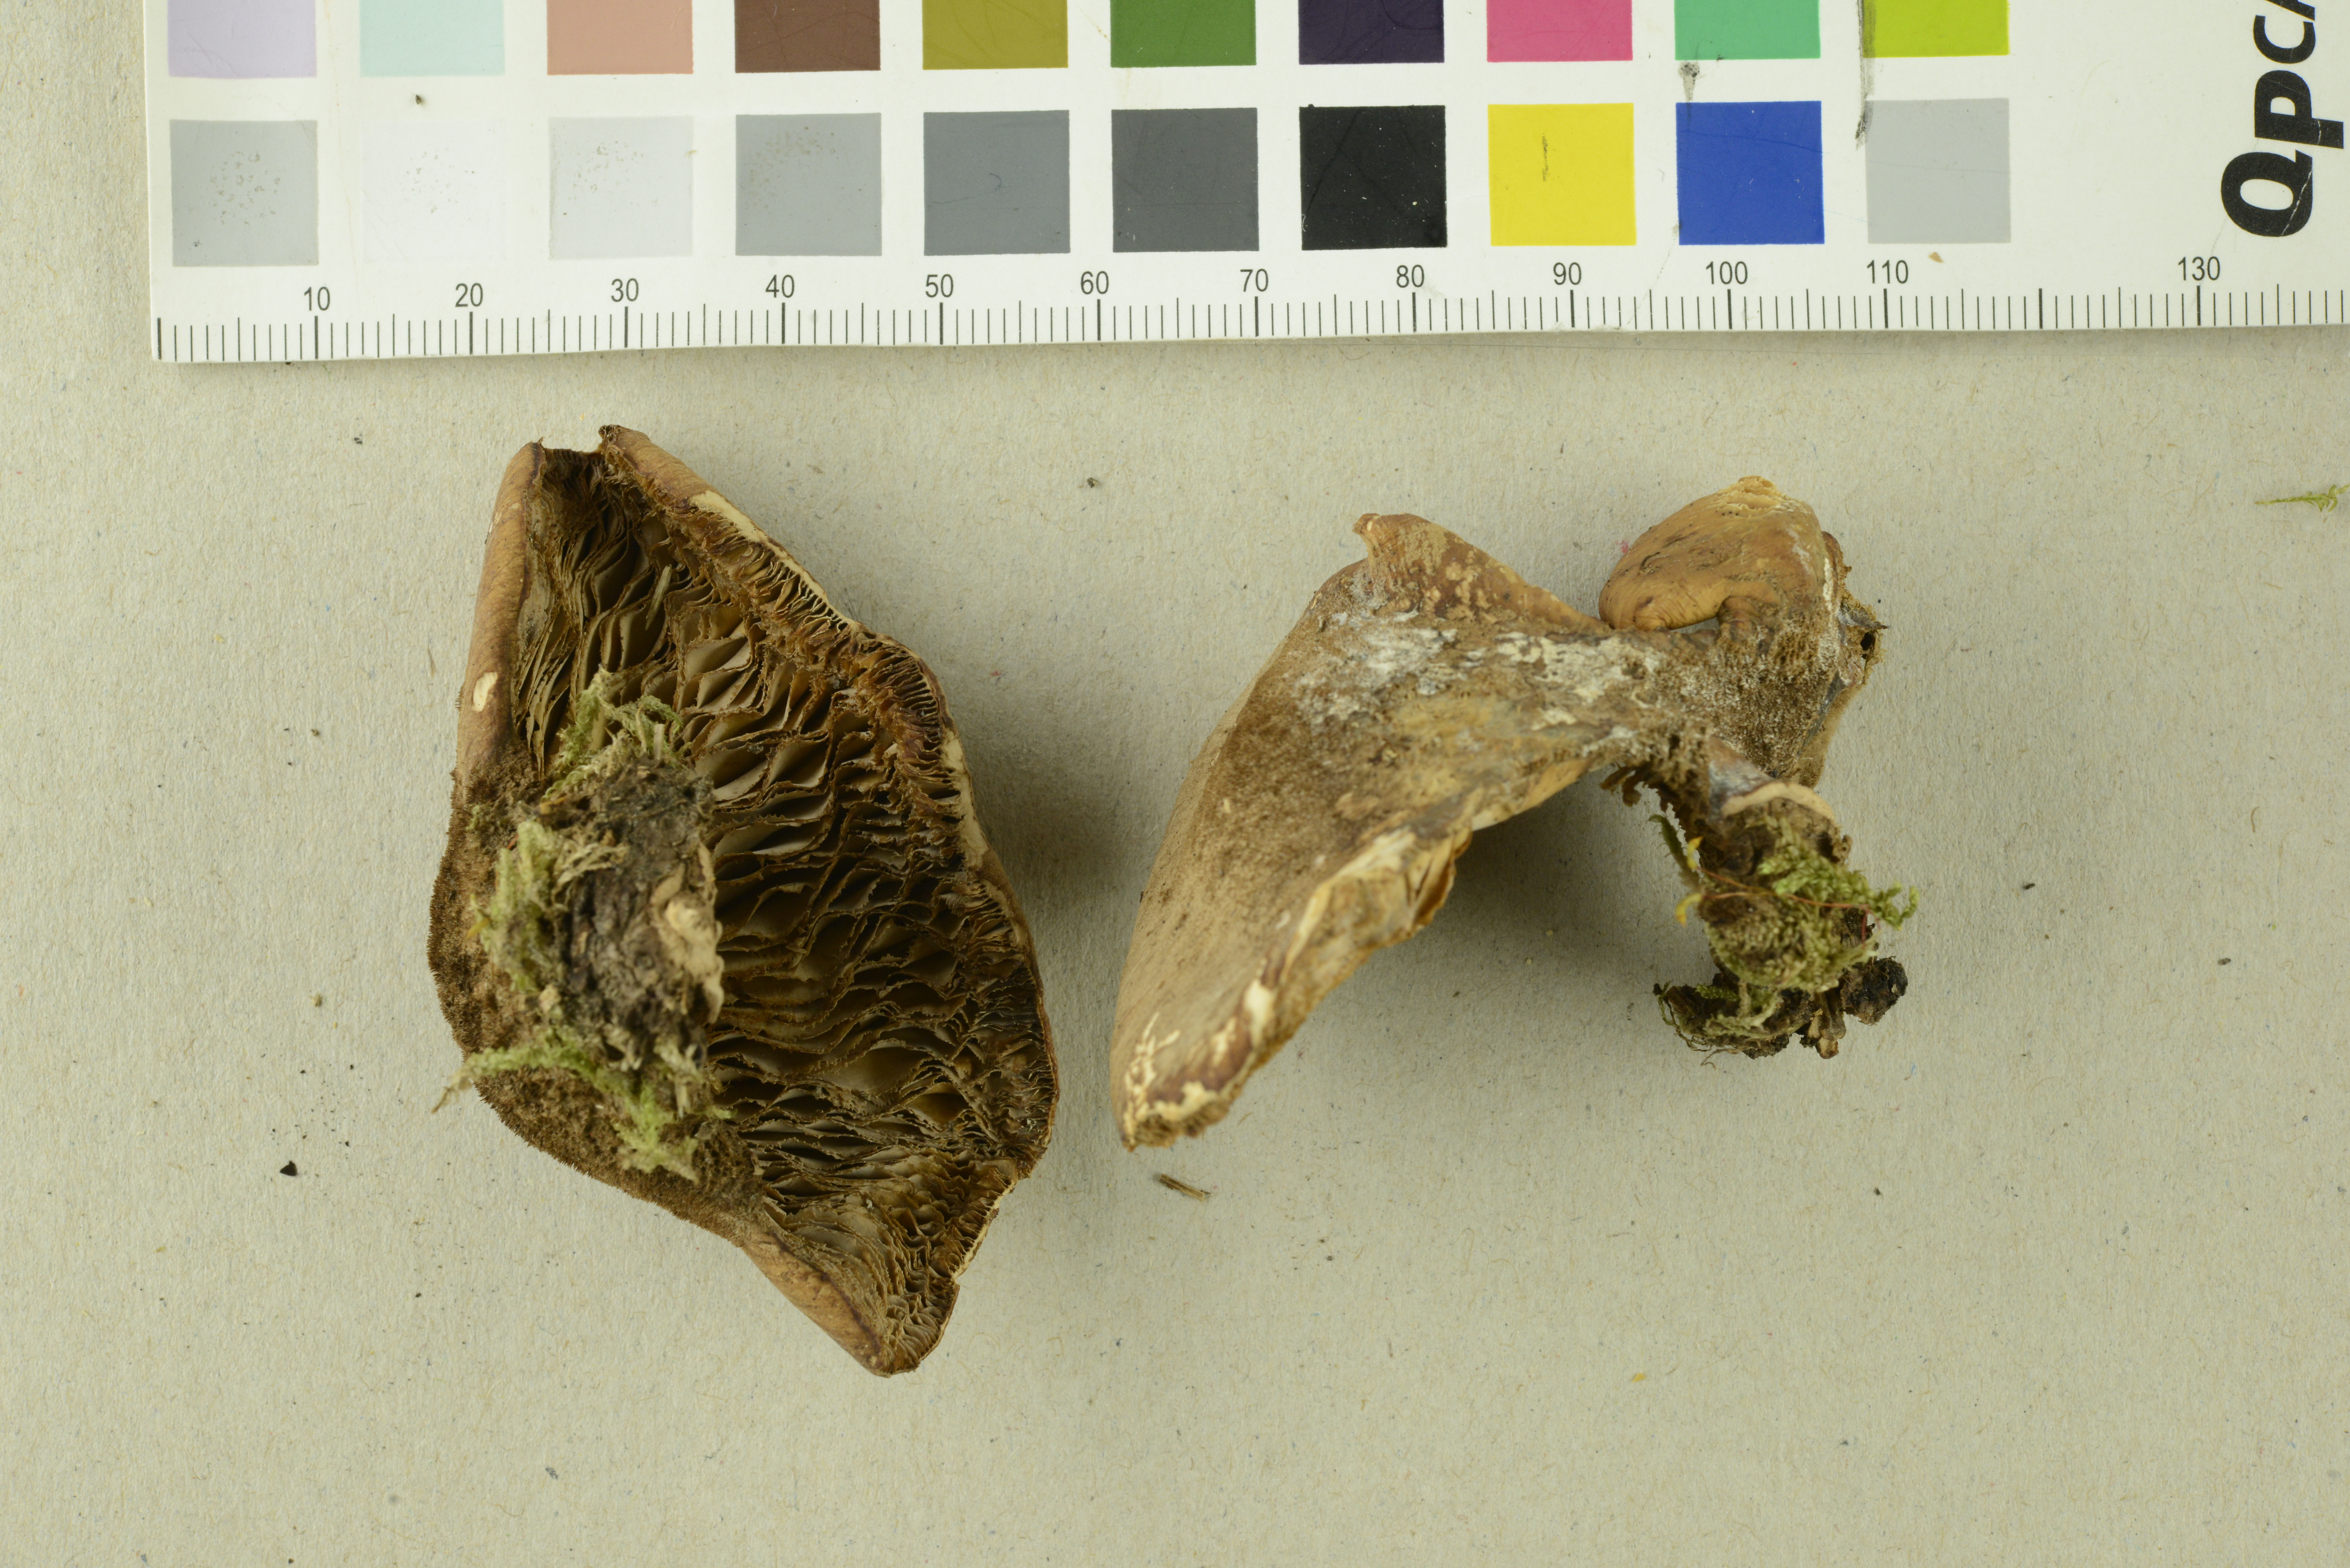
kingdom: Fungi
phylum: Basidiomycota
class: Agaricomycetes
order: Russulales
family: Auriscalpiaceae
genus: Lentinellus
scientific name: Lentinellus ursinus
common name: Bear lentinus
